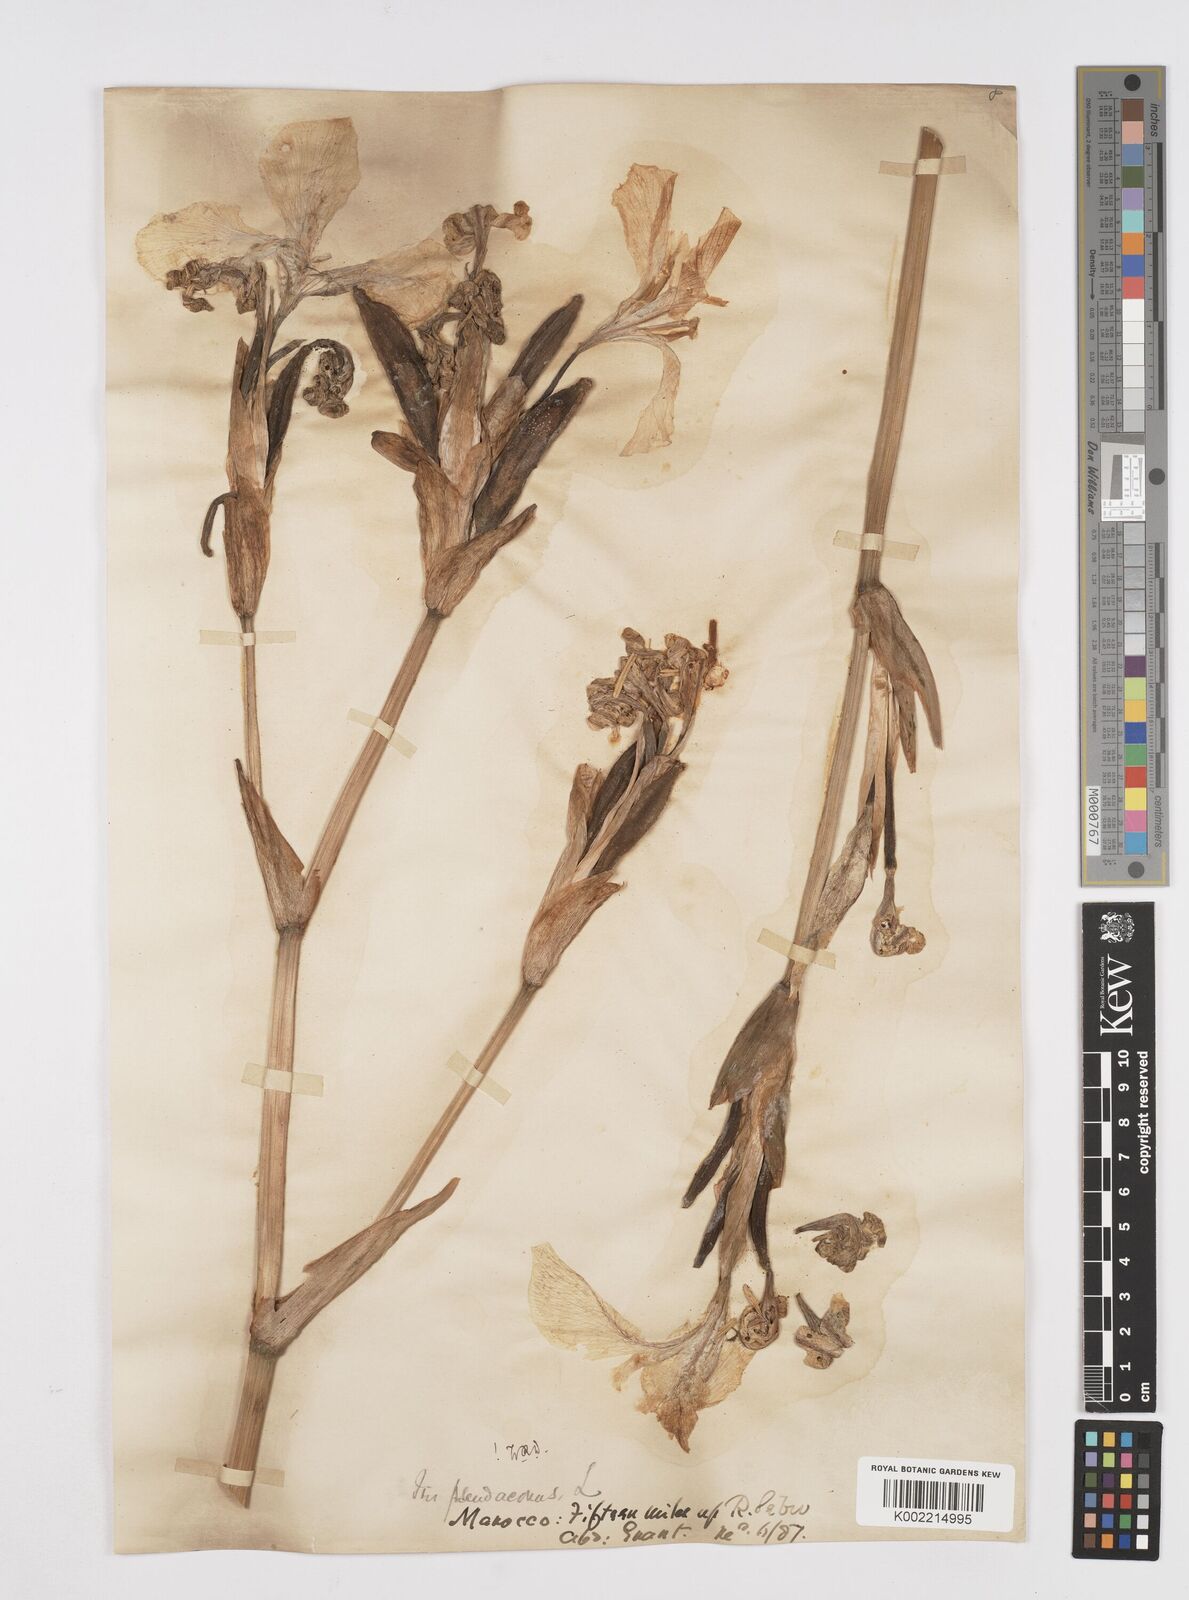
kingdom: Plantae
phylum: Tracheophyta
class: Liliopsida
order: Asparagales
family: Iridaceae
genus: Iris
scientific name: Iris pseudacorus
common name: Yellow flag
